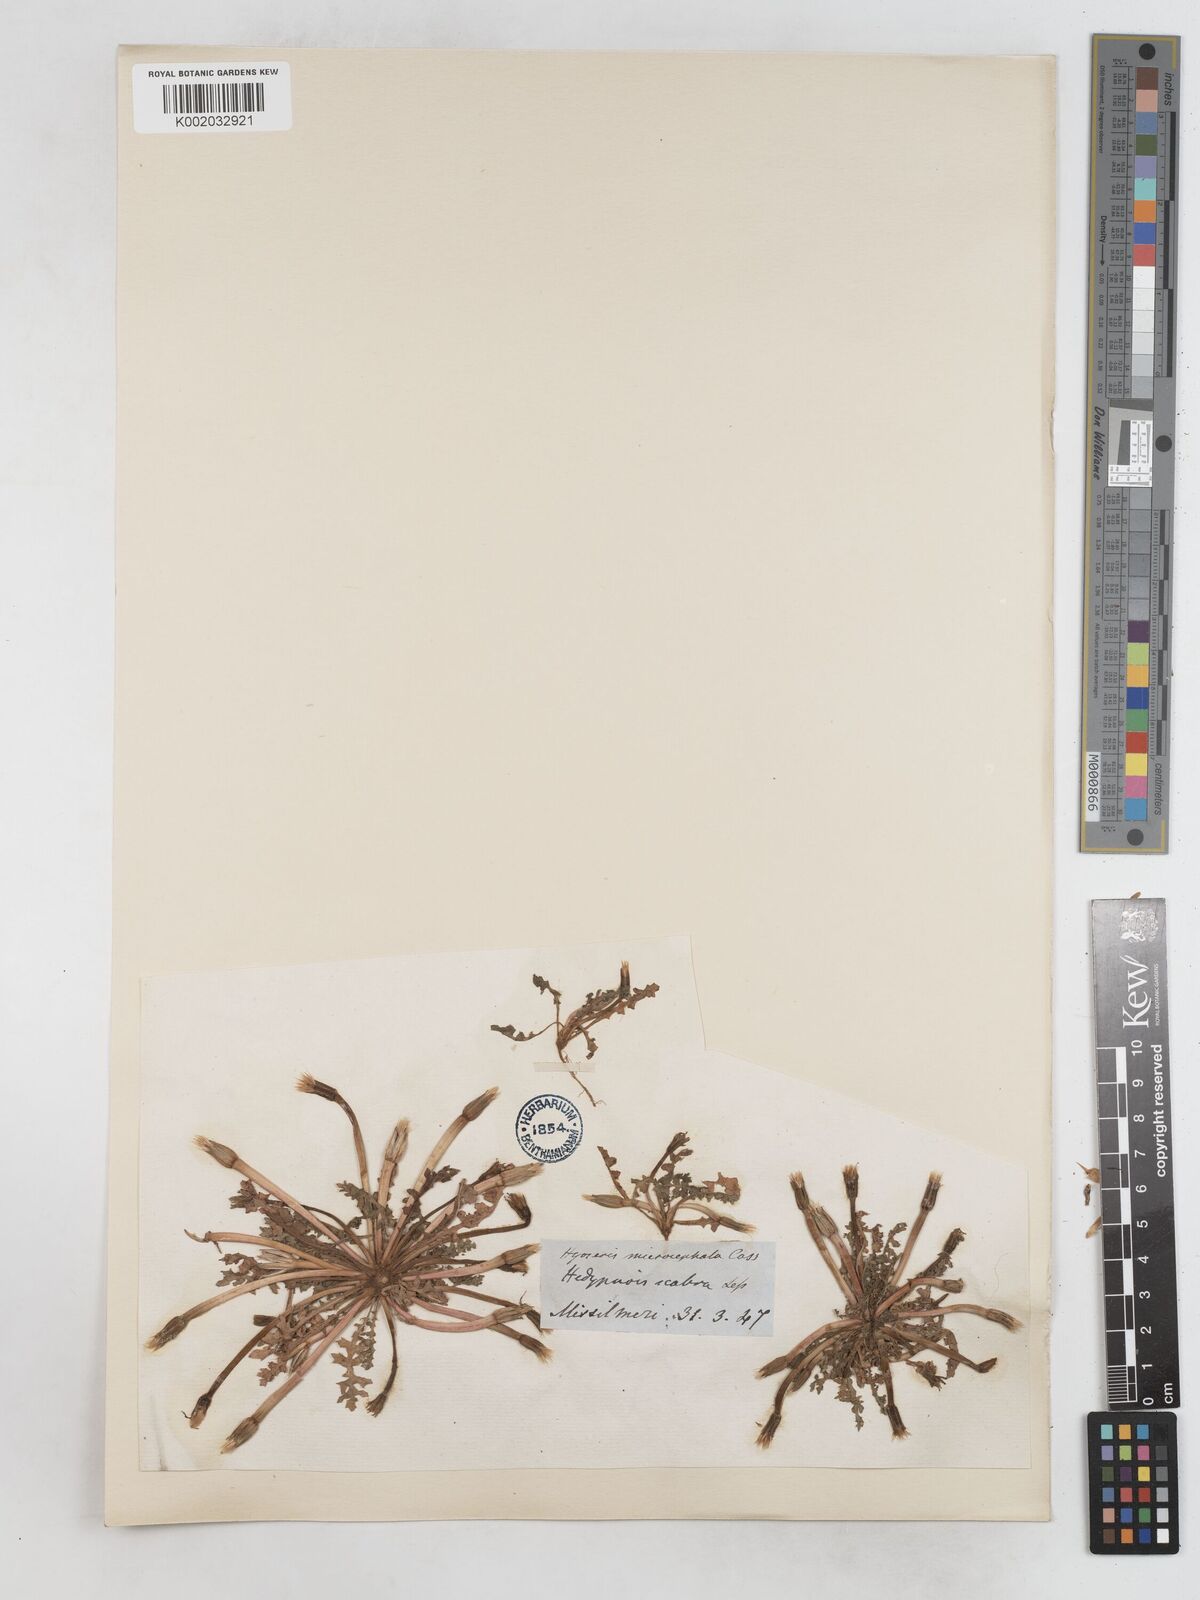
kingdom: Plantae
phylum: Tracheophyta
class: Magnoliopsida
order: Asterales
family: Asteraceae
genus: Hyoseris
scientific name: Hyoseris scabra
